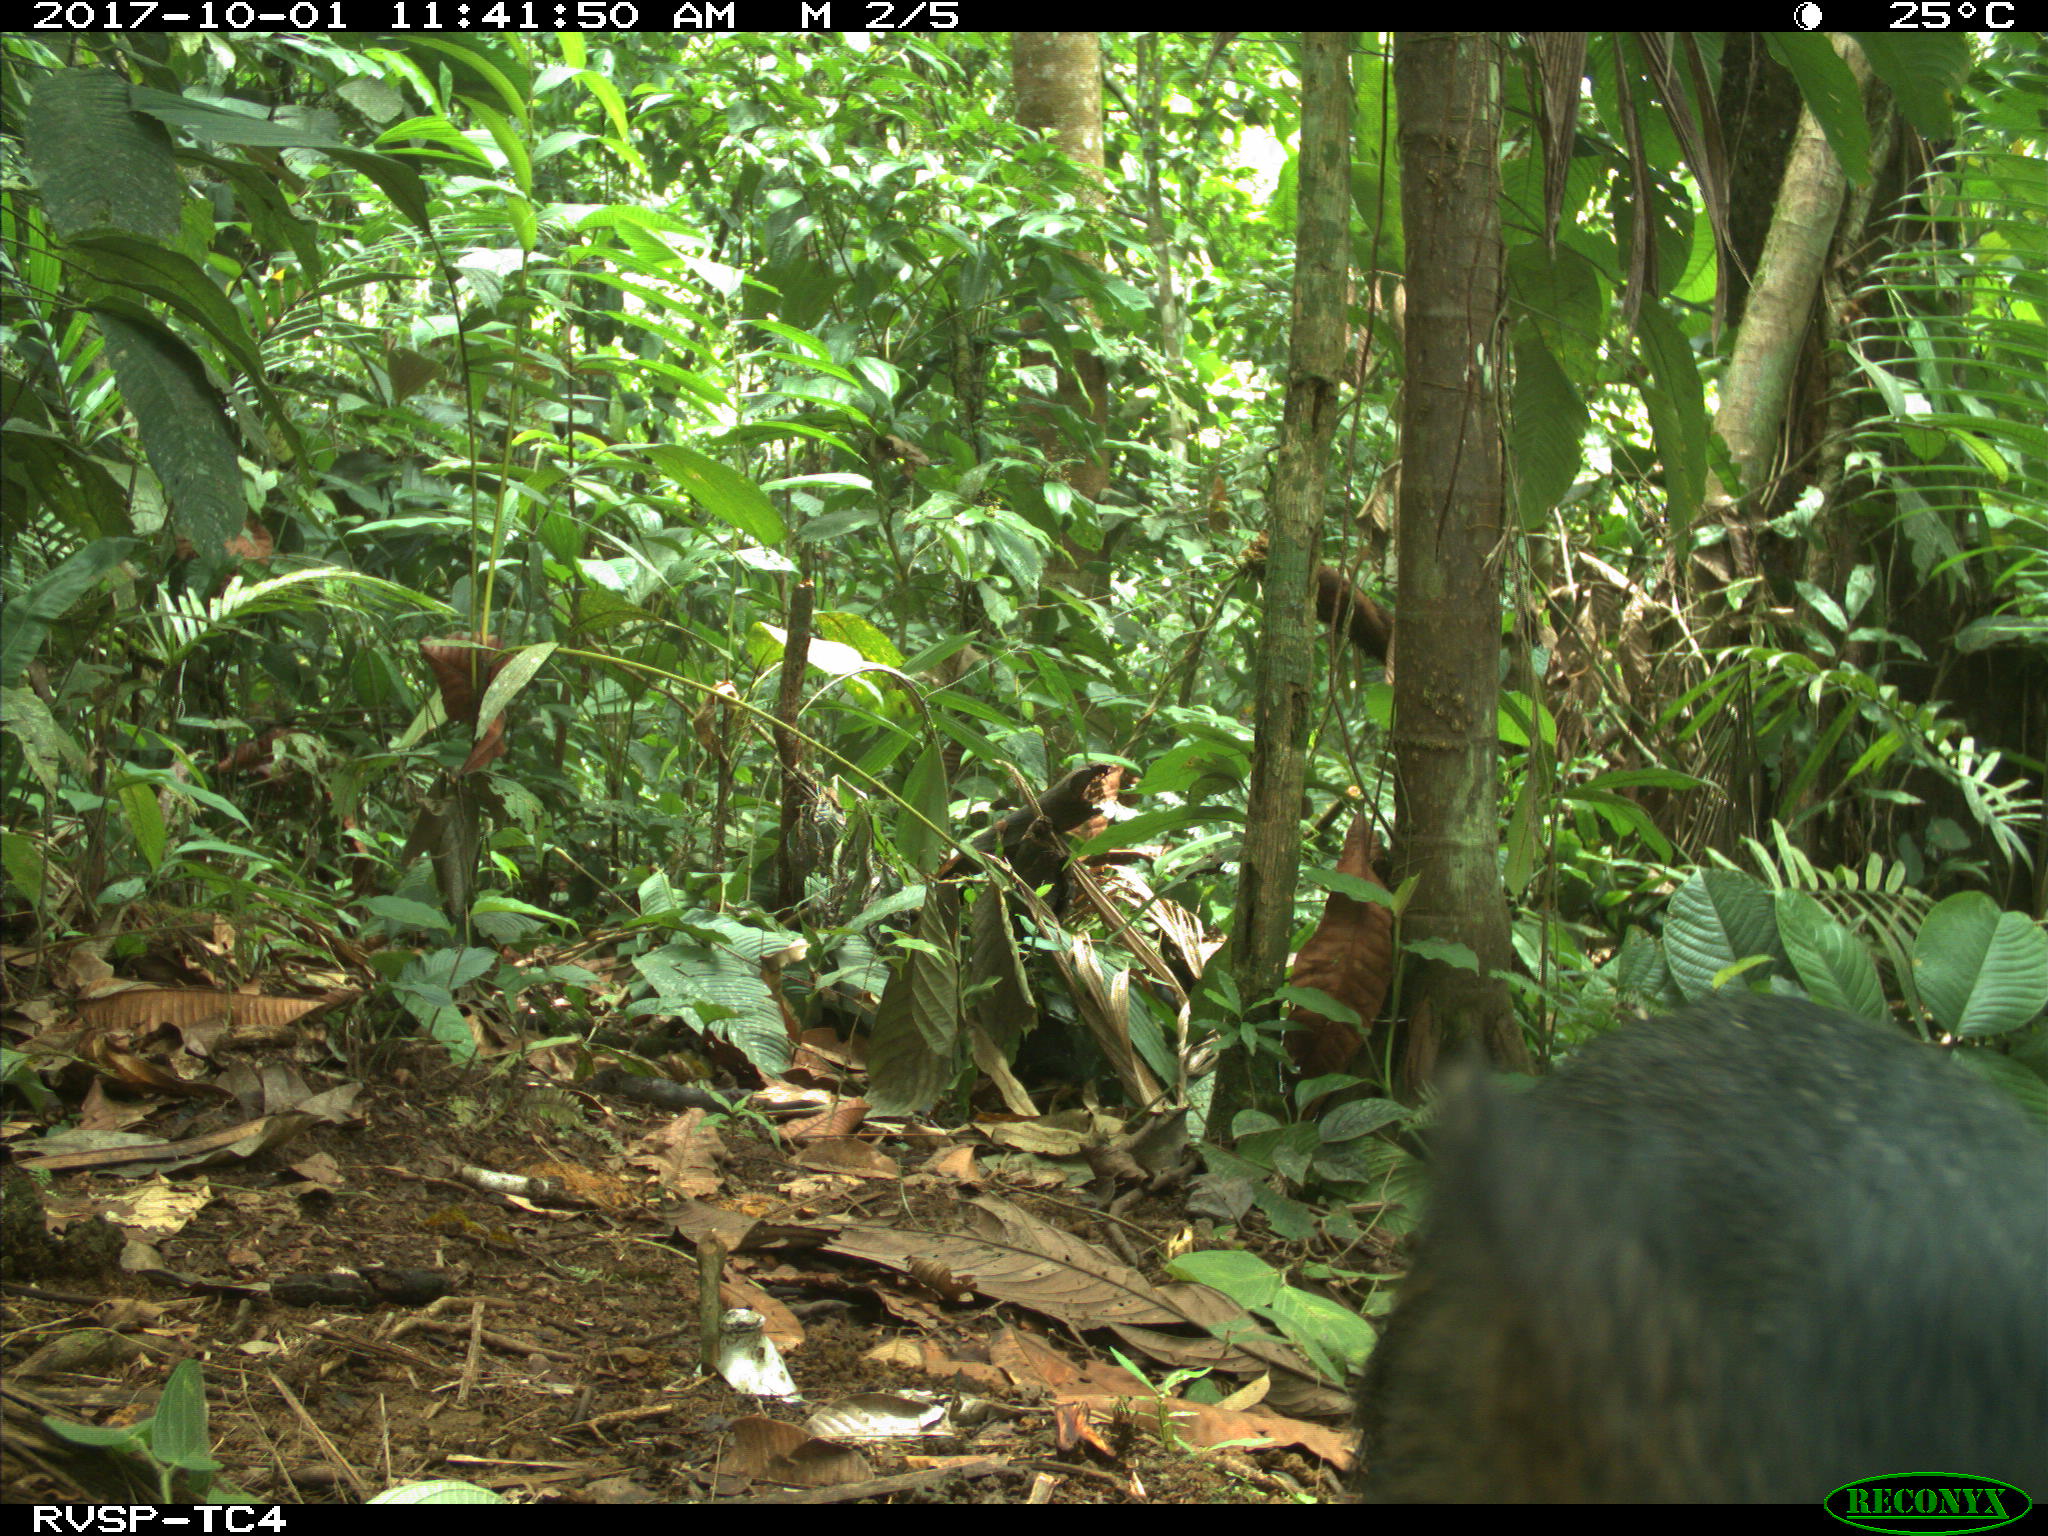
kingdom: Animalia
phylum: Chordata
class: Mammalia
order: Artiodactyla
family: Tayassuidae
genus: Pecari
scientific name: Pecari tajacu
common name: Collared peccary
